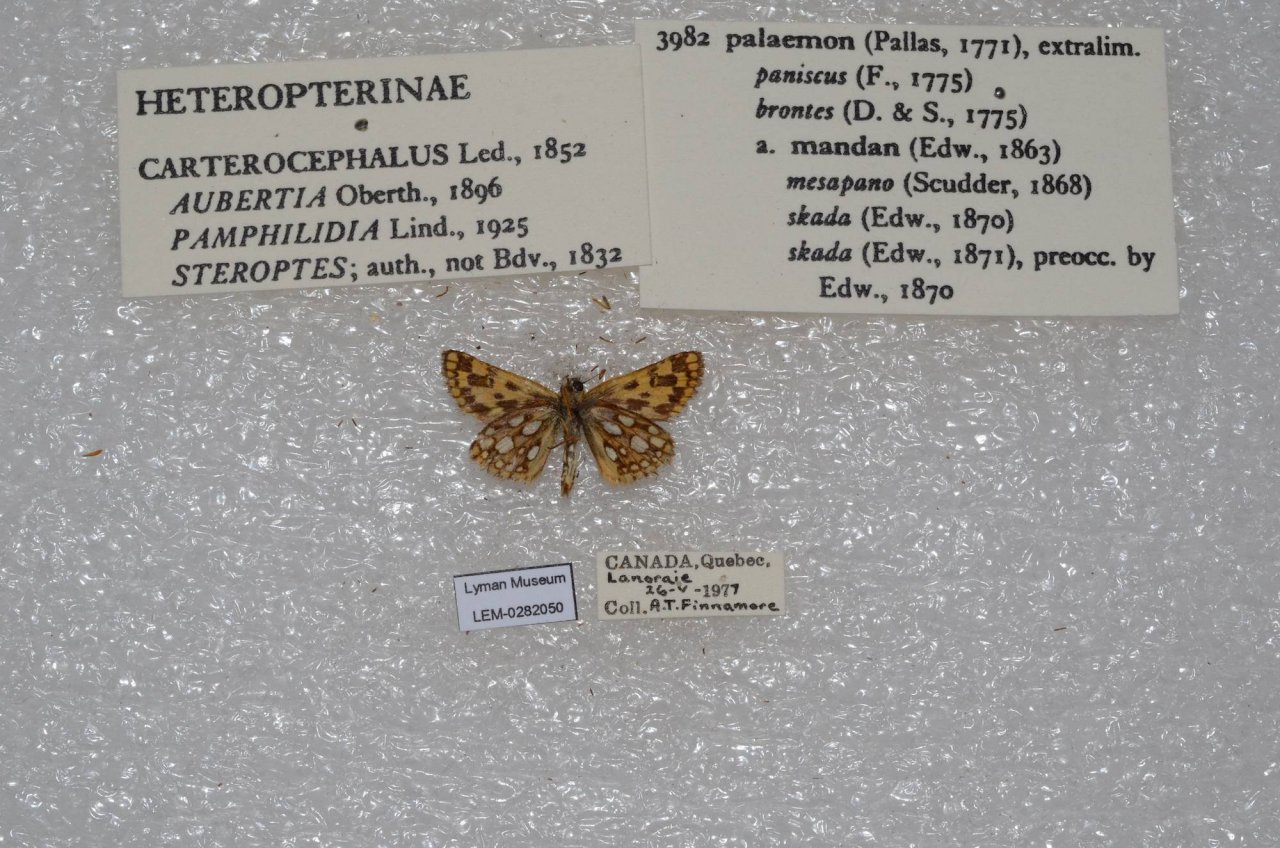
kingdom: Animalia
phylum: Arthropoda
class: Insecta
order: Lepidoptera
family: Hesperiidae
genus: Carterocephalus
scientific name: Carterocephalus palaemon
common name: Chequered Skipper
